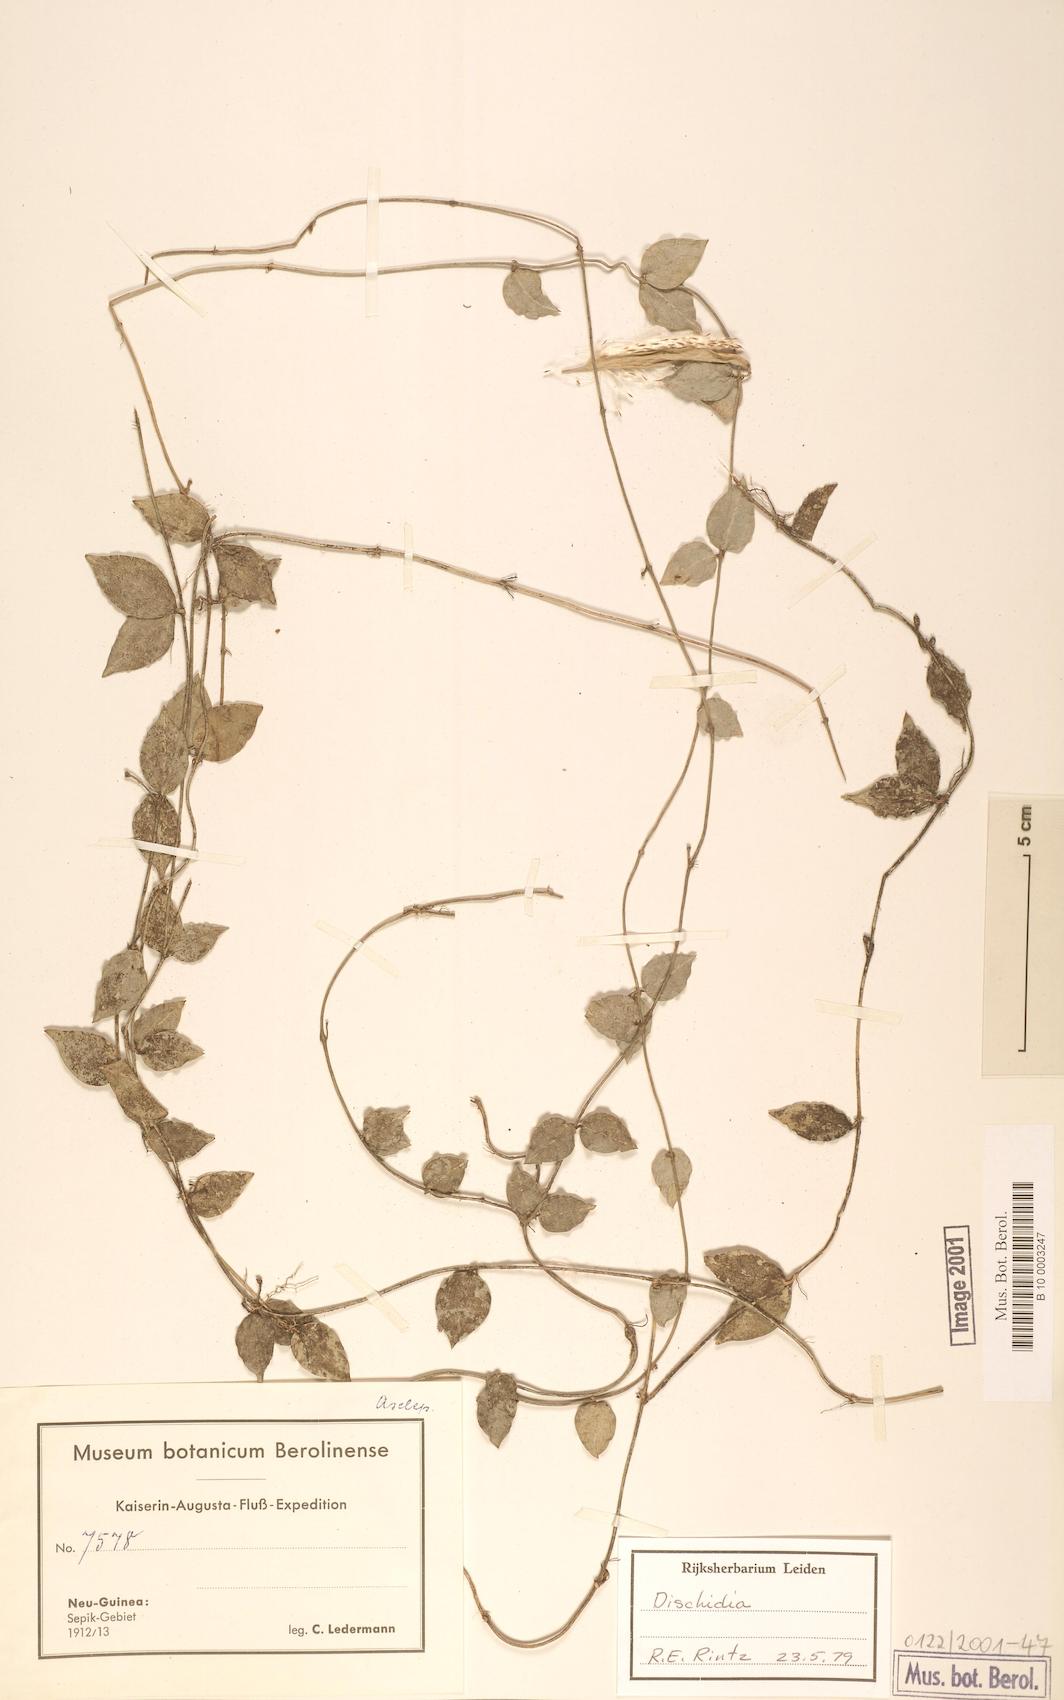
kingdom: Plantae
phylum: Tracheophyta
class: Magnoliopsida
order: Gentianales
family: Apocynaceae
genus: Dischidia
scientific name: Dischidia
